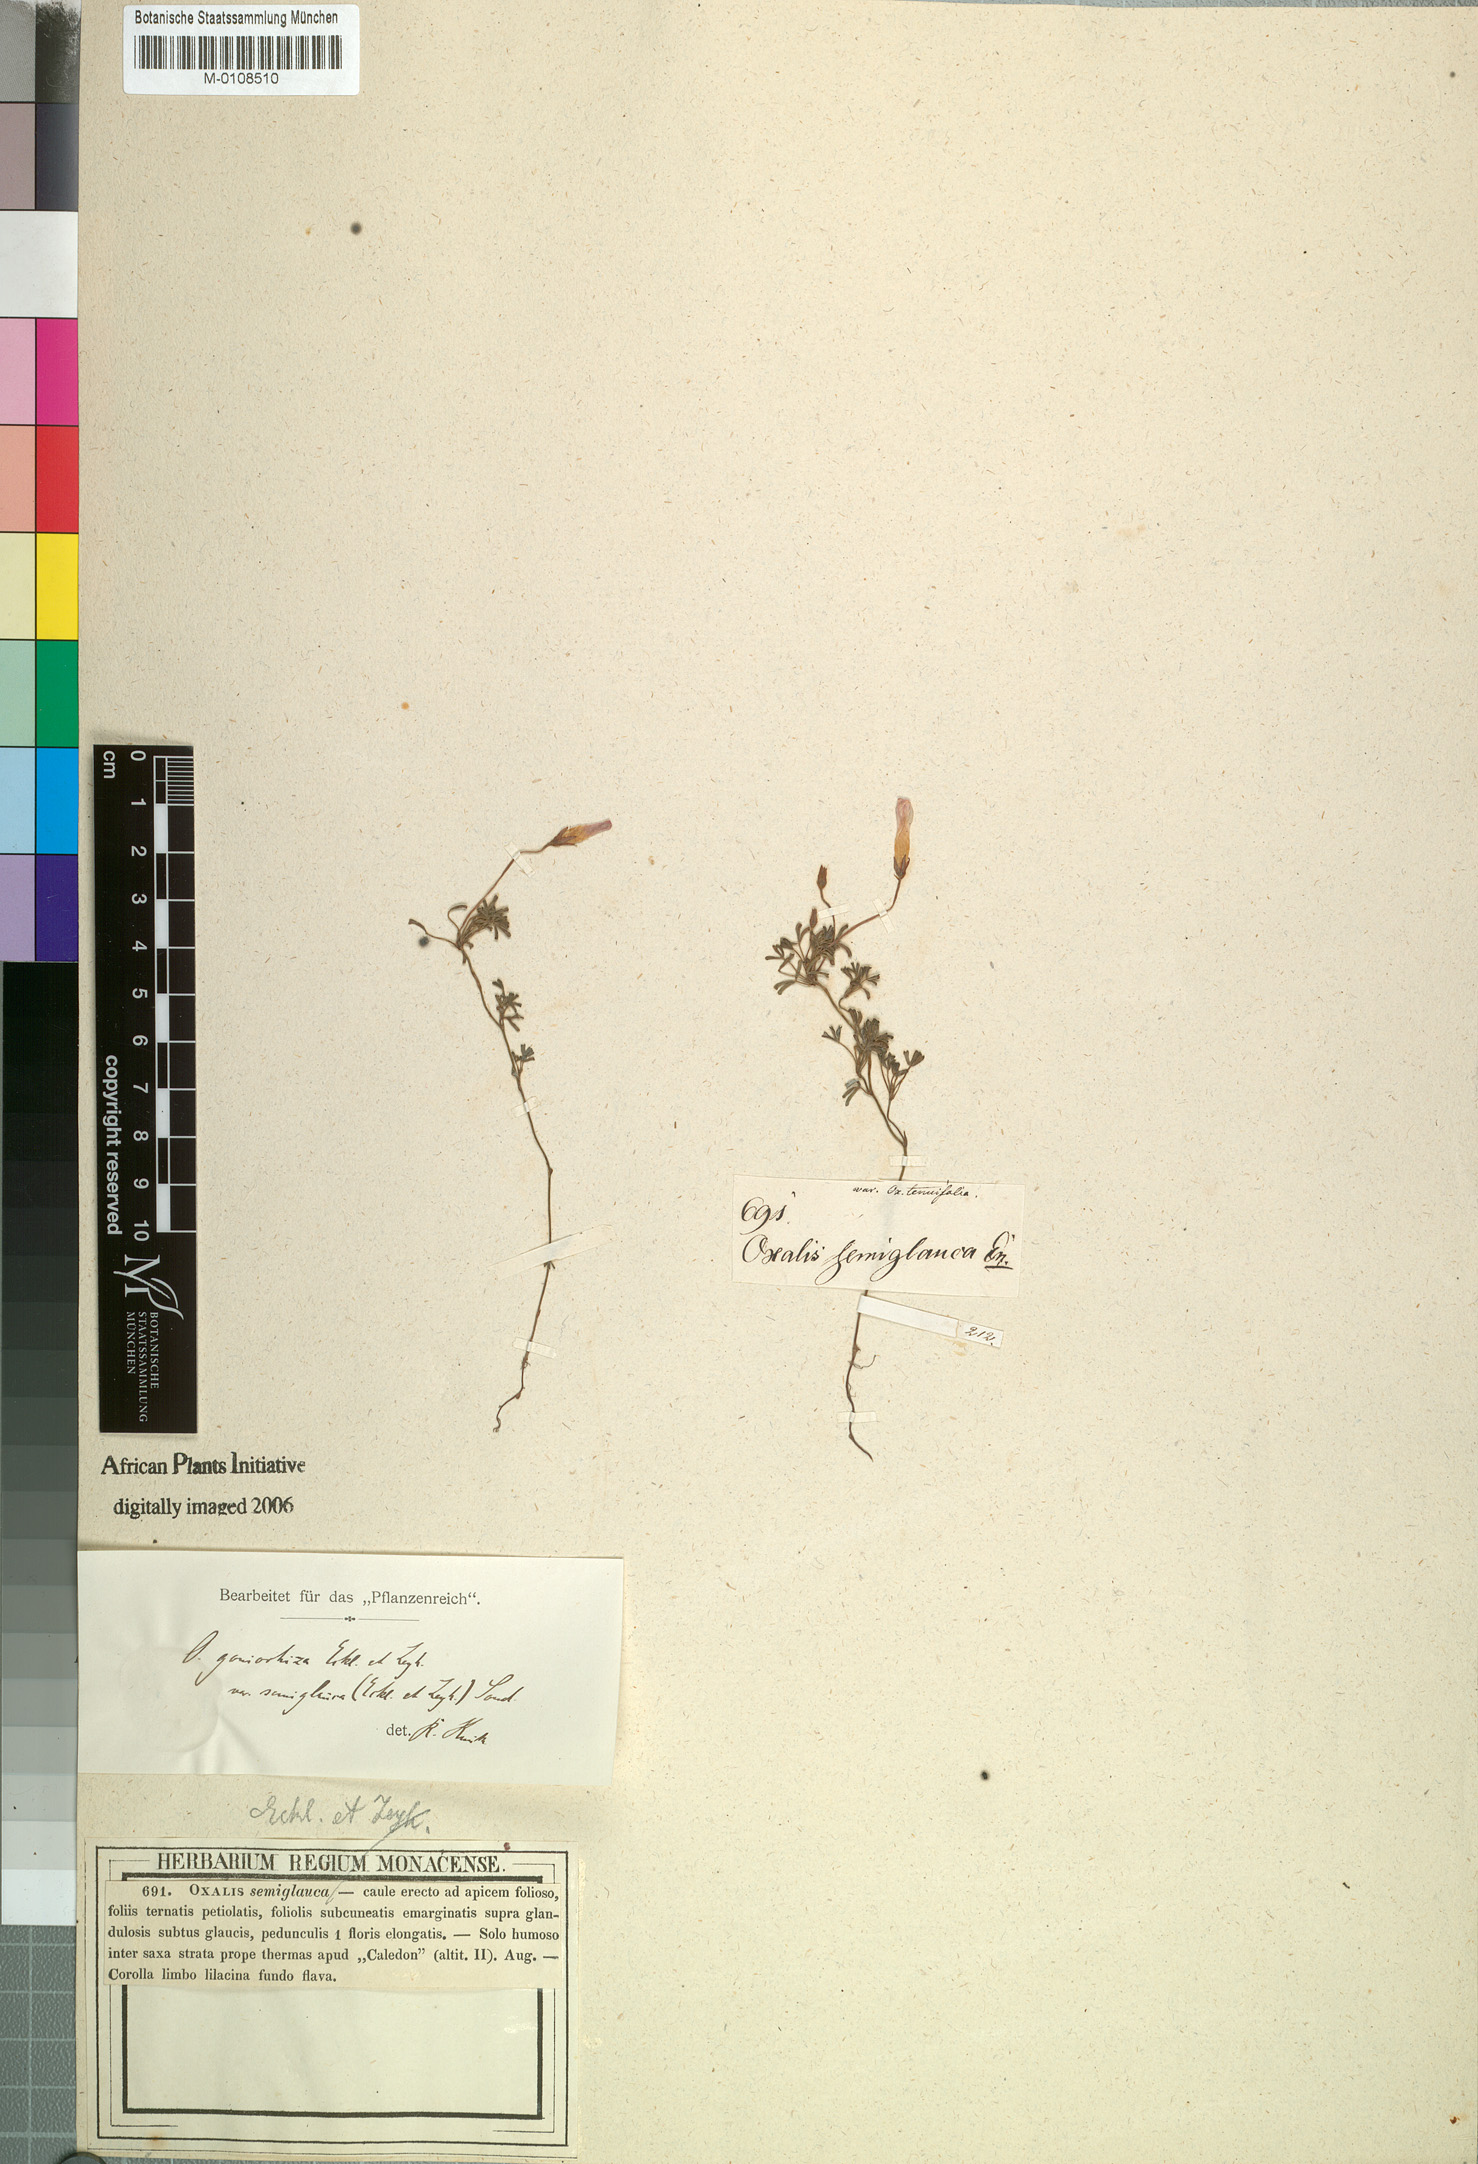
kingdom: Plantae
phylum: Tracheophyta
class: Magnoliopsida
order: Oxalidales
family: Oxalidaceae
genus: Oxalis
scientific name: Oxalis goniorhiza
